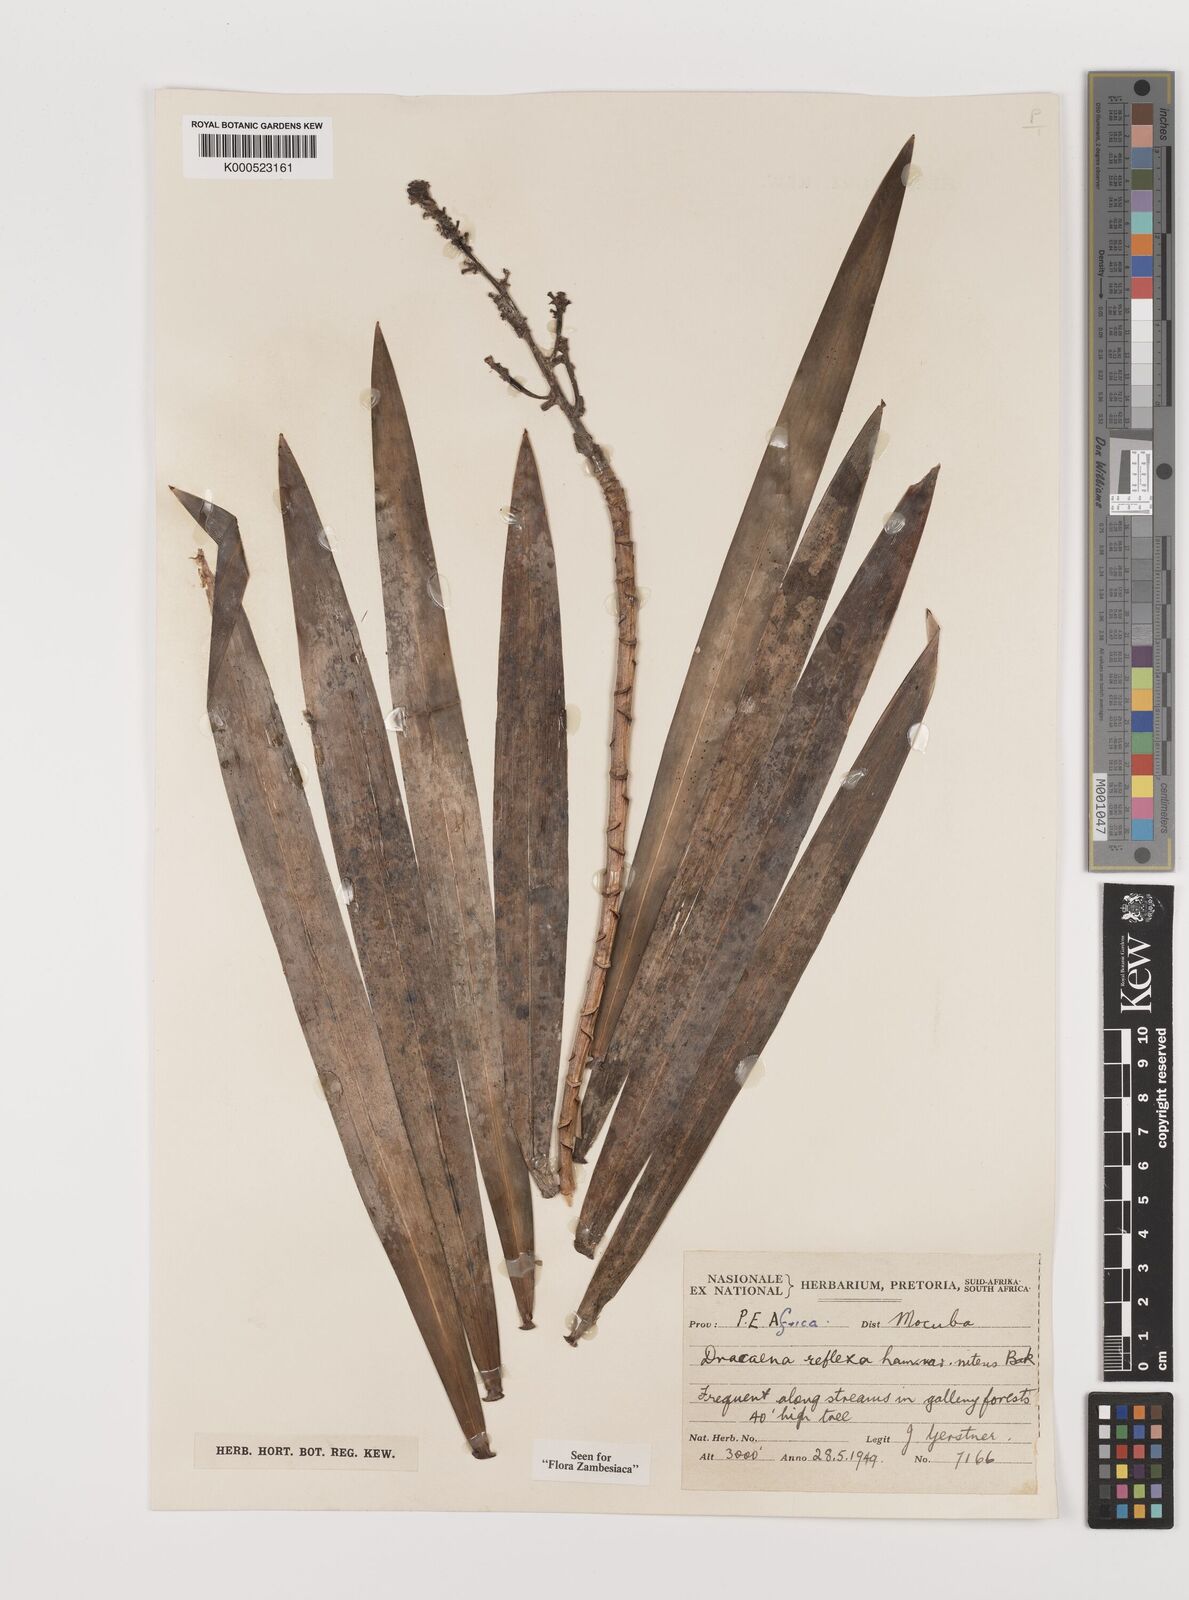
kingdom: Plantae
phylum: Tracheophyta
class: Liliopsida
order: Asparagales
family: Asparagaceae
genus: Dracaena
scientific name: Dracaena usambarensis
